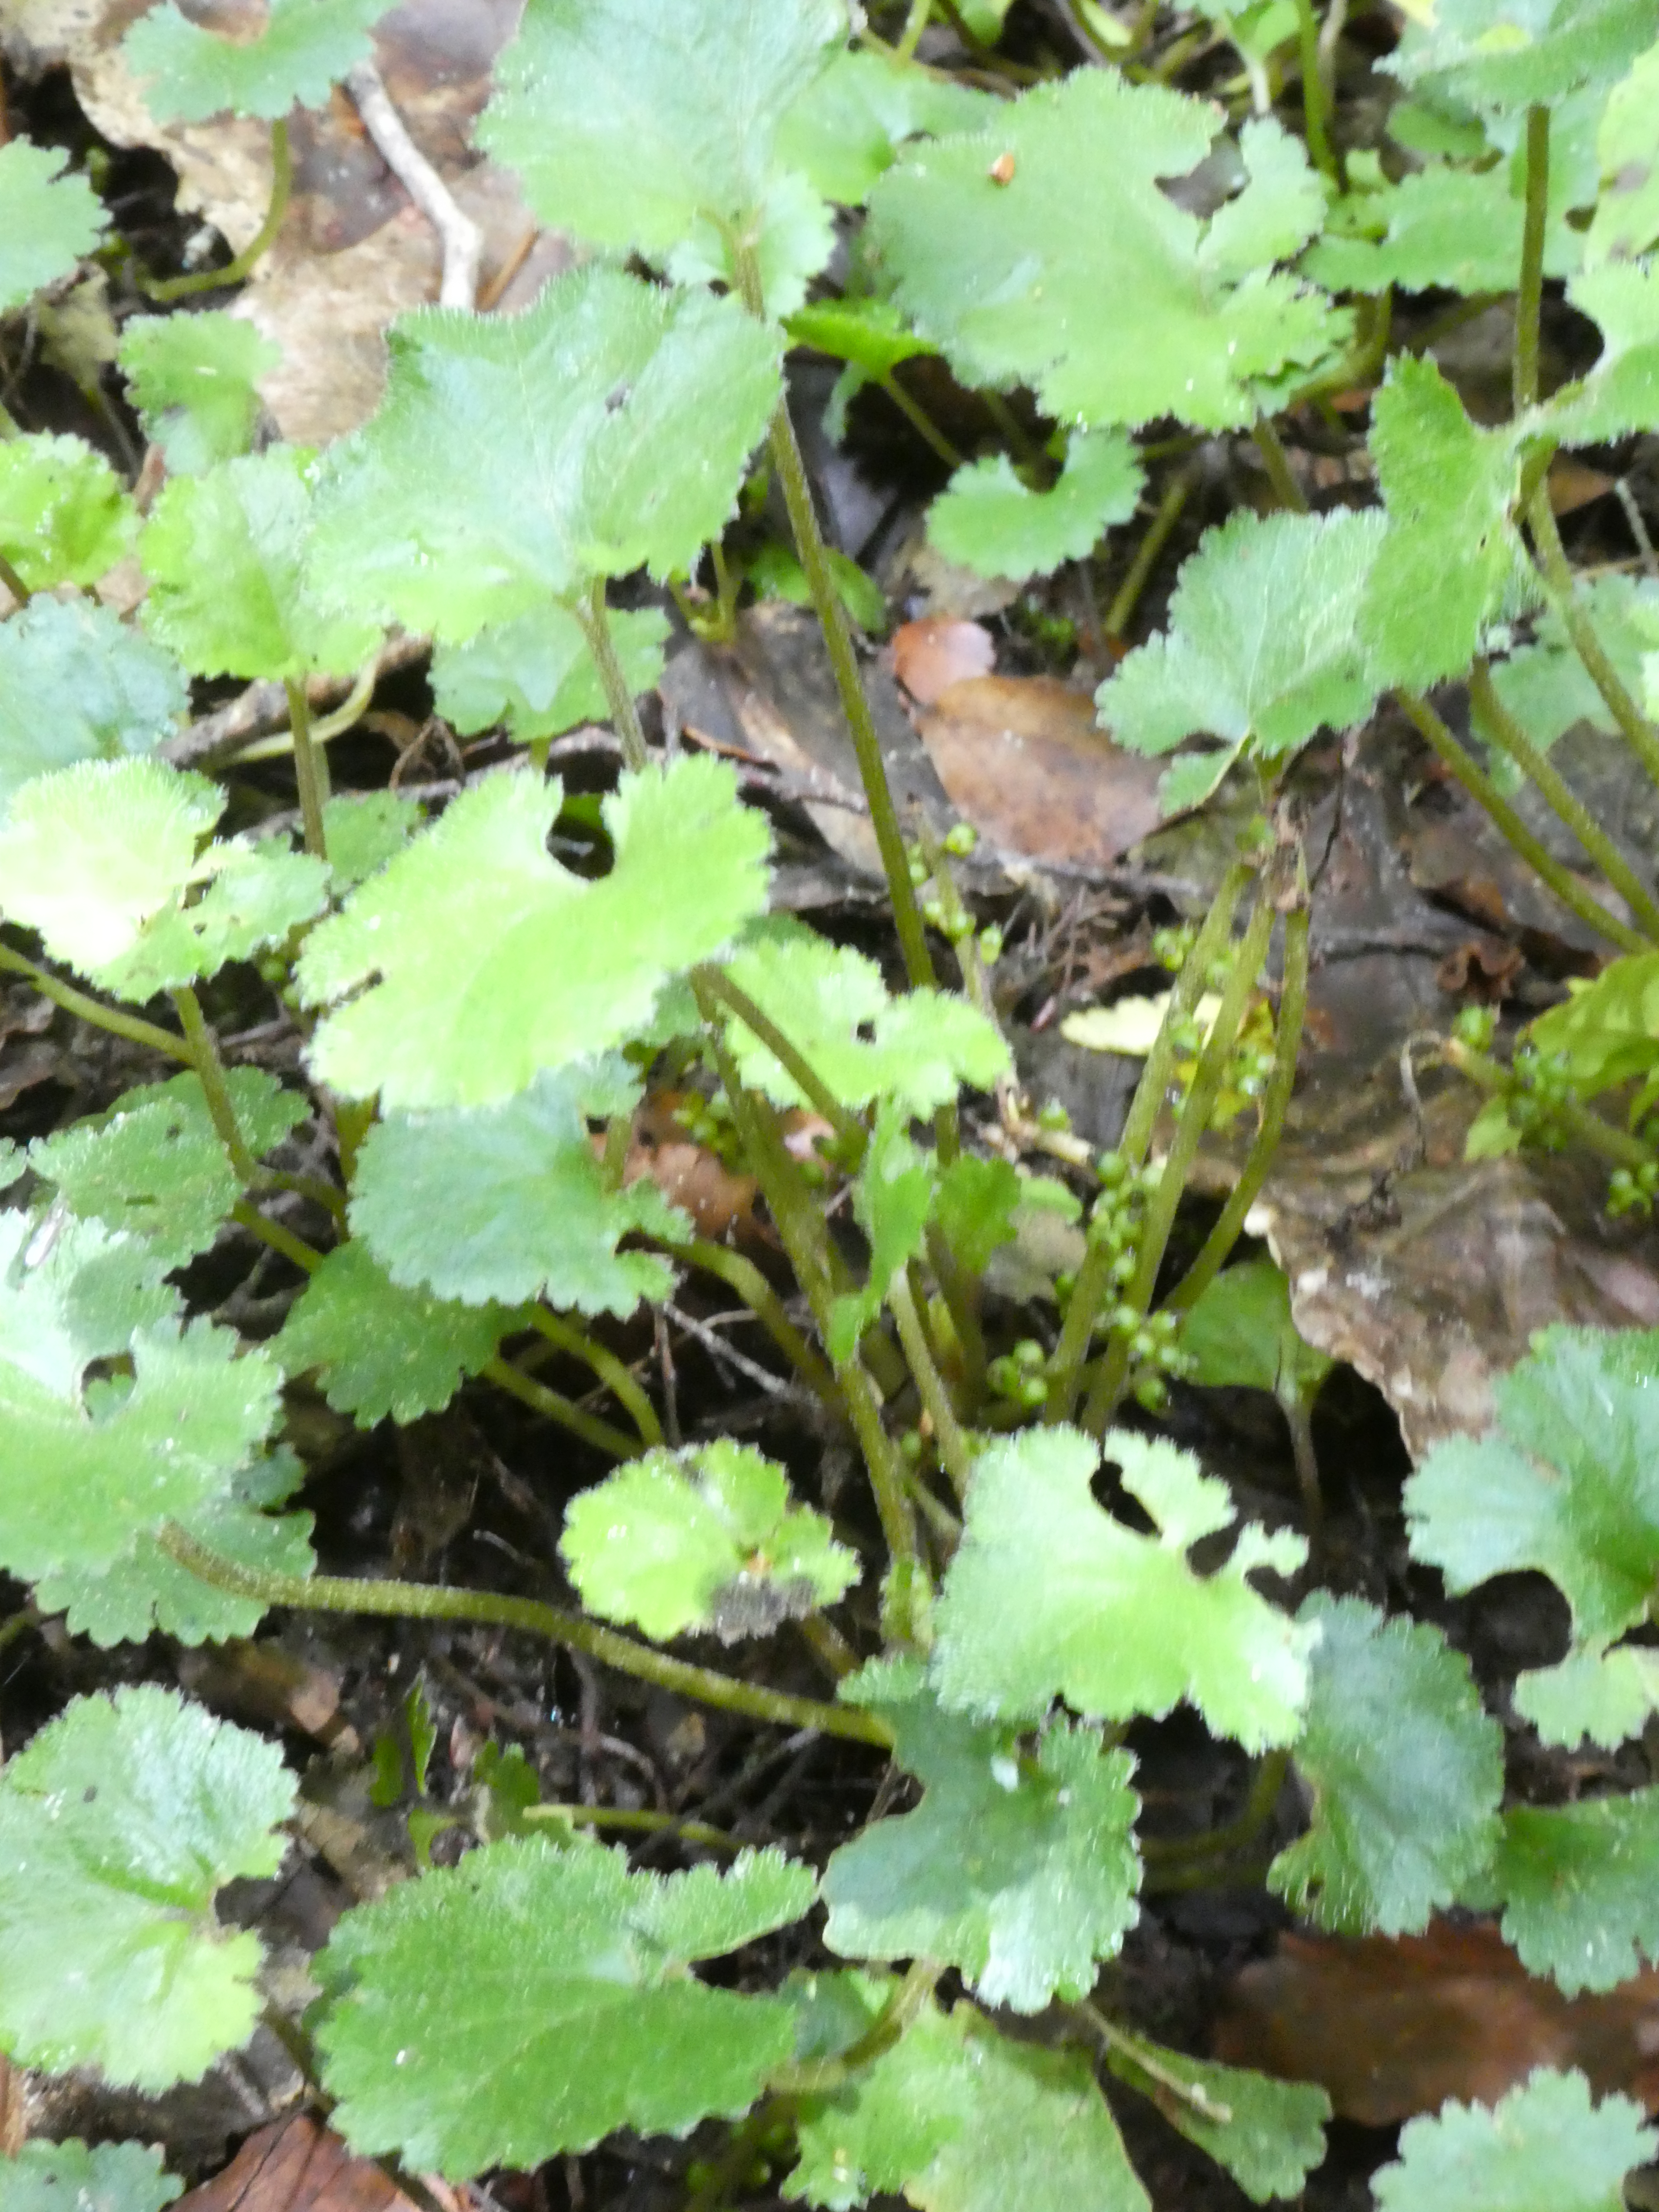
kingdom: Plantae
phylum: Tracheophyta
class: Magnoliopsida
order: Gunnerales
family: Gunneraceae
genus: Gunnera
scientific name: Gunnera monoica
